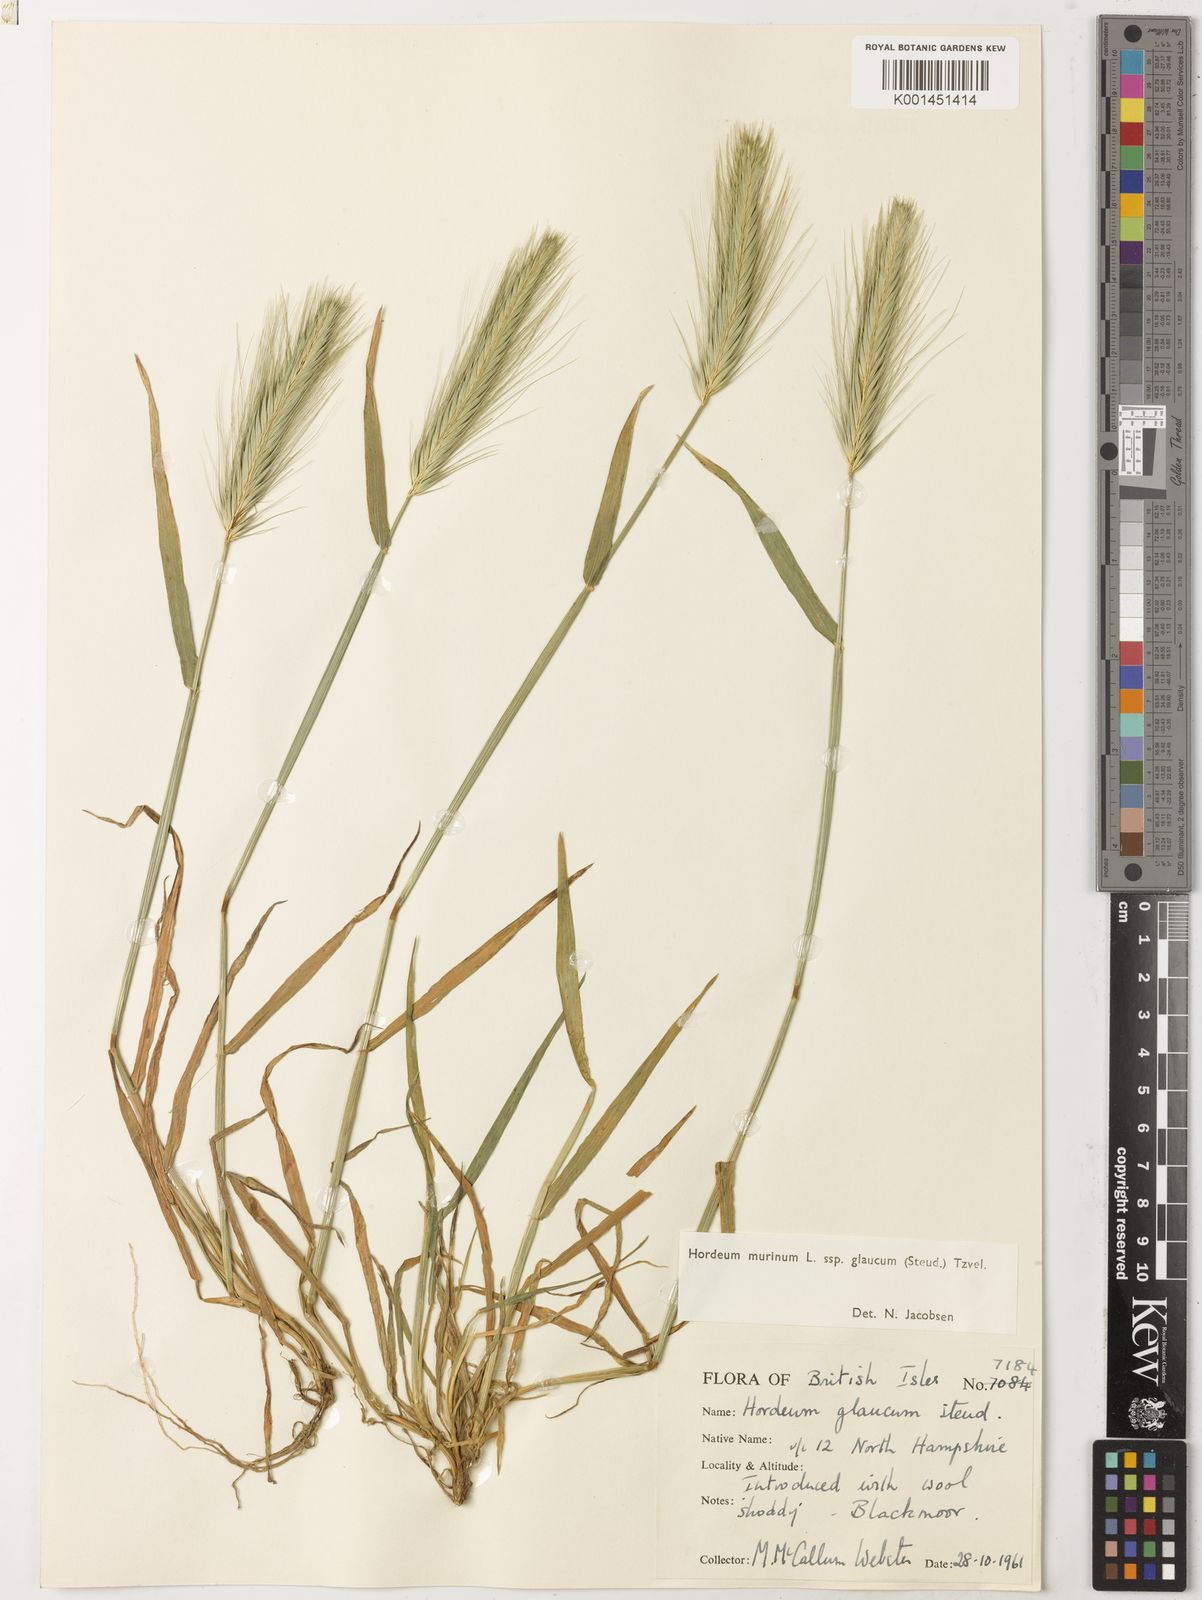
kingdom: Plantae
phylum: Tracheophyta
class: Liliopsida
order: Poales
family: Poaceae
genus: Hordeum
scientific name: Hordeum murinum
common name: Wall barley
